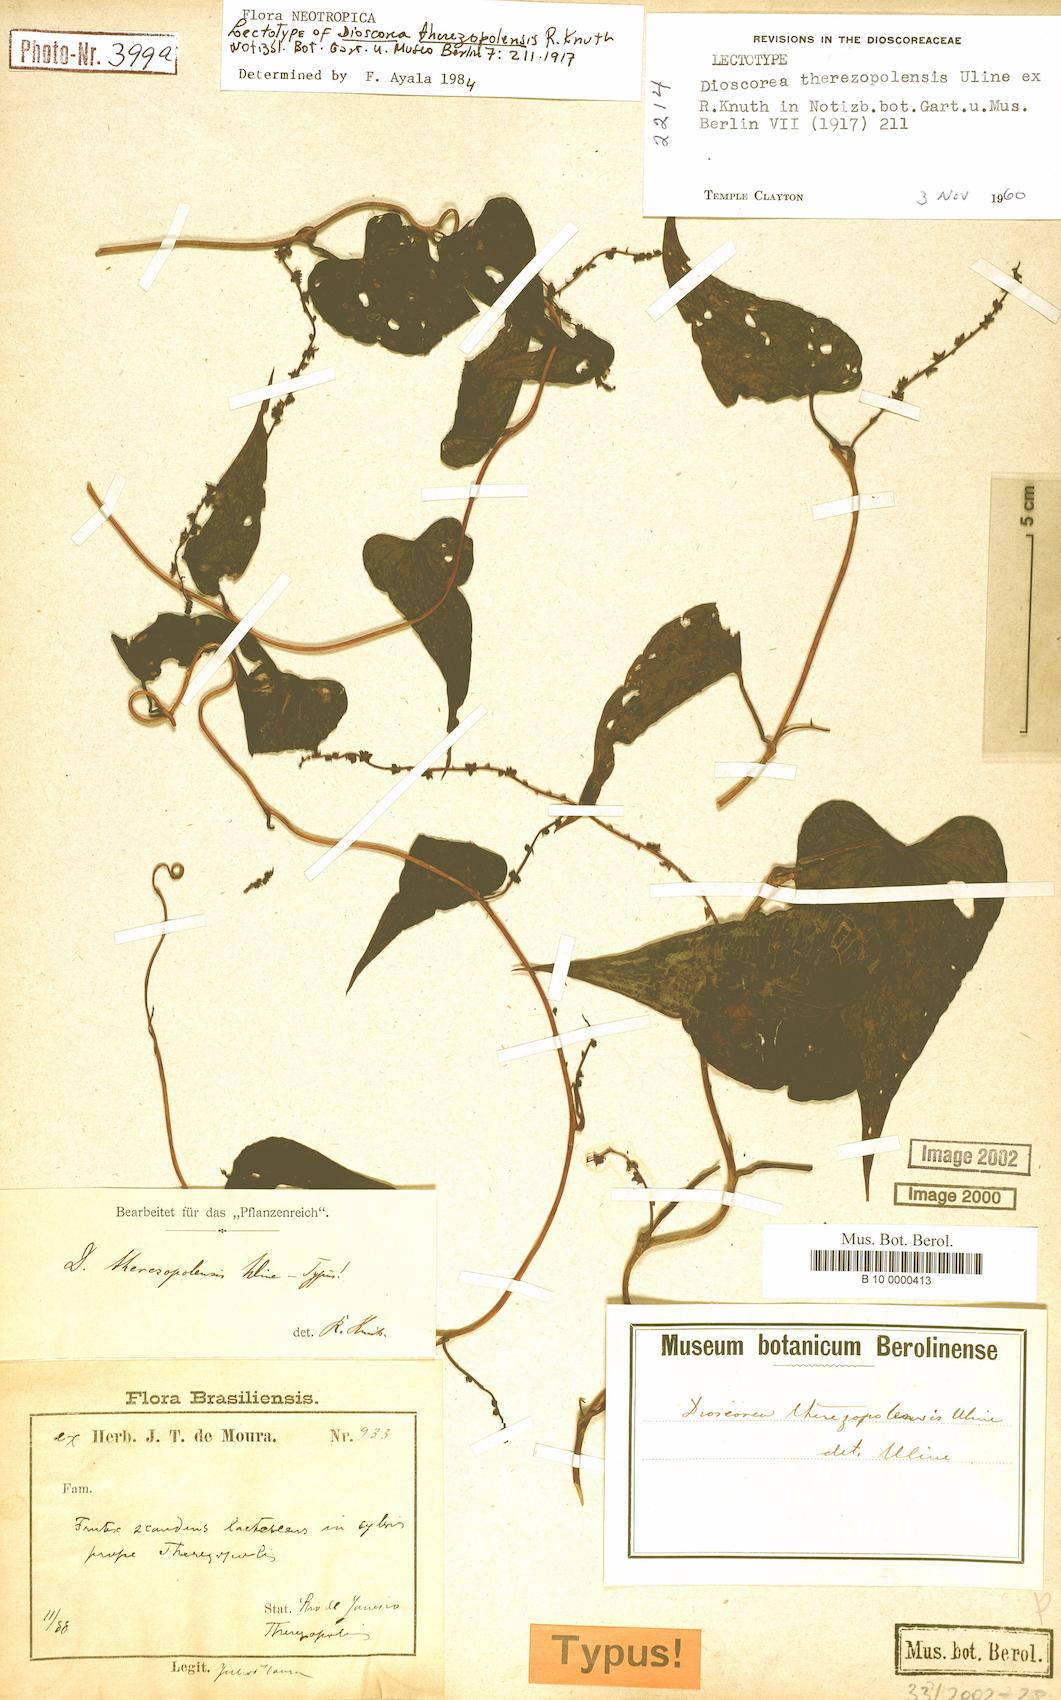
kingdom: Plantae
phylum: Tracheophyta
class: Liliopsida
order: Dioscoreales
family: Dioscoreaceae
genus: Dioscorea
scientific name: Dioscorea therezopolensis
